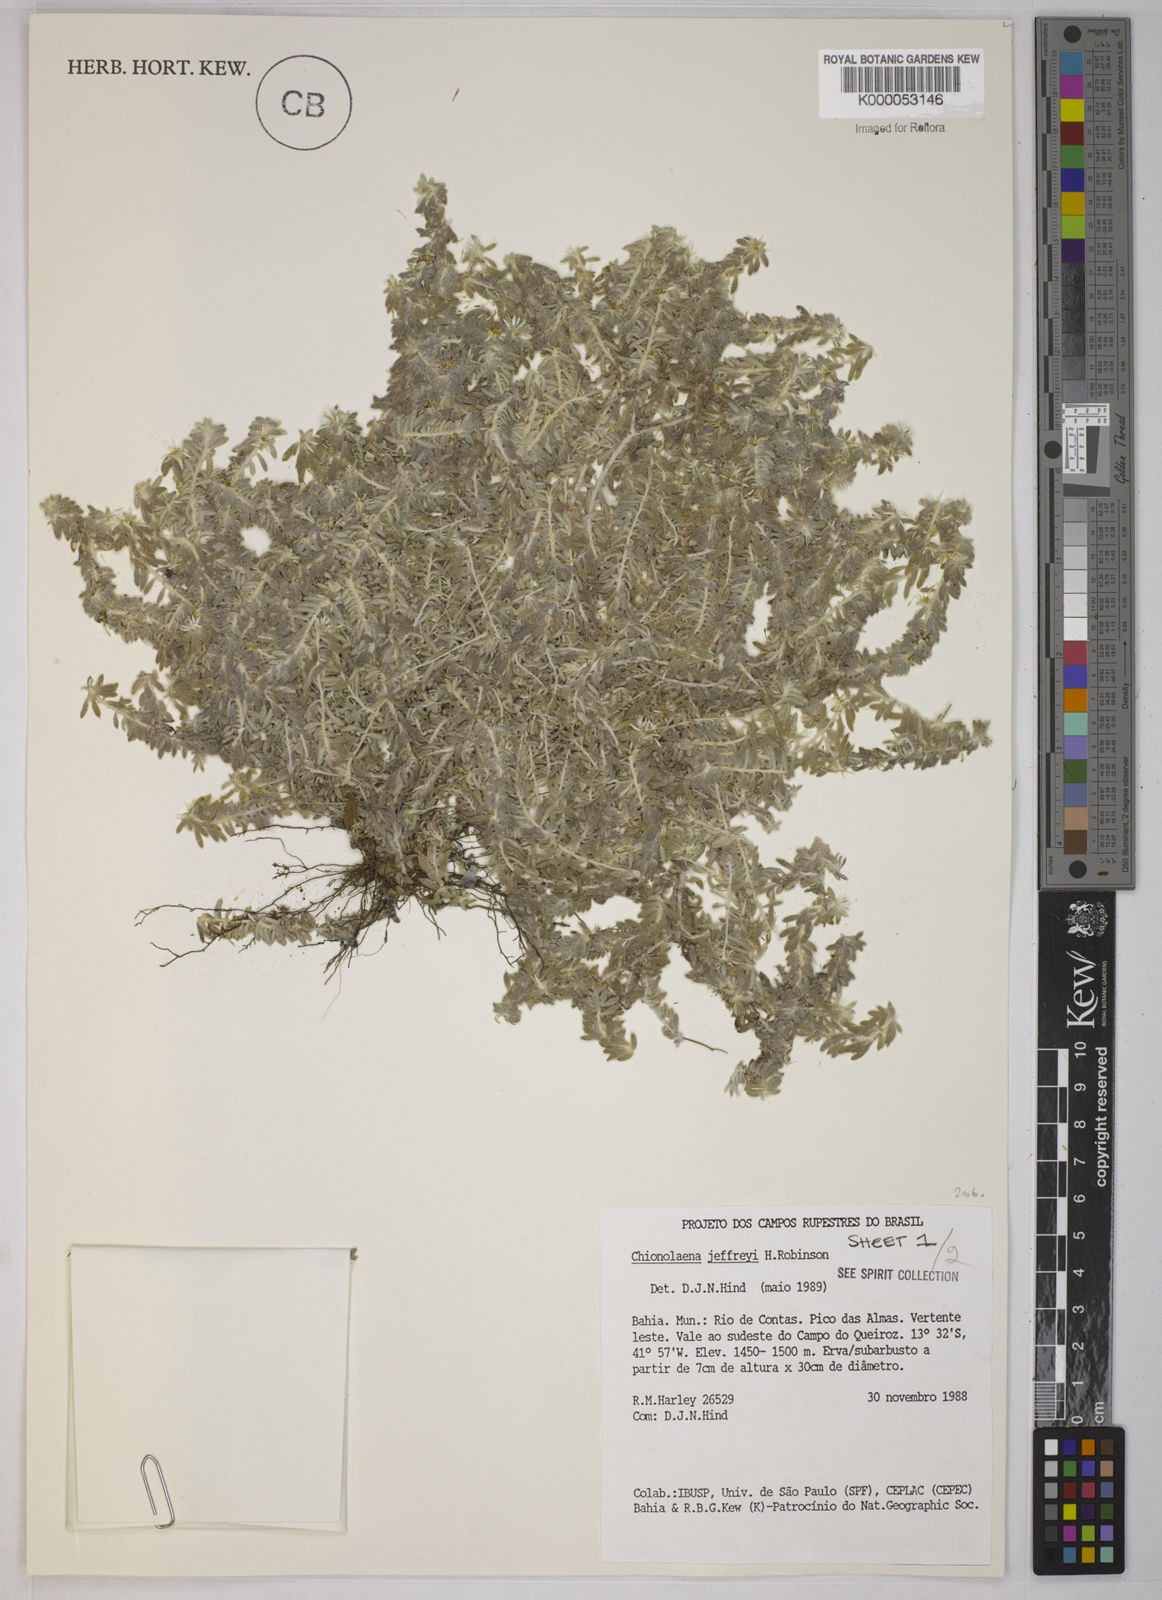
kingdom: Plantae
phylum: Tracheophyta
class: Magnoliopsida
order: Asterales
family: Asteraceae
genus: Chionolaena
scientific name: Chionolaena jeffreyi
